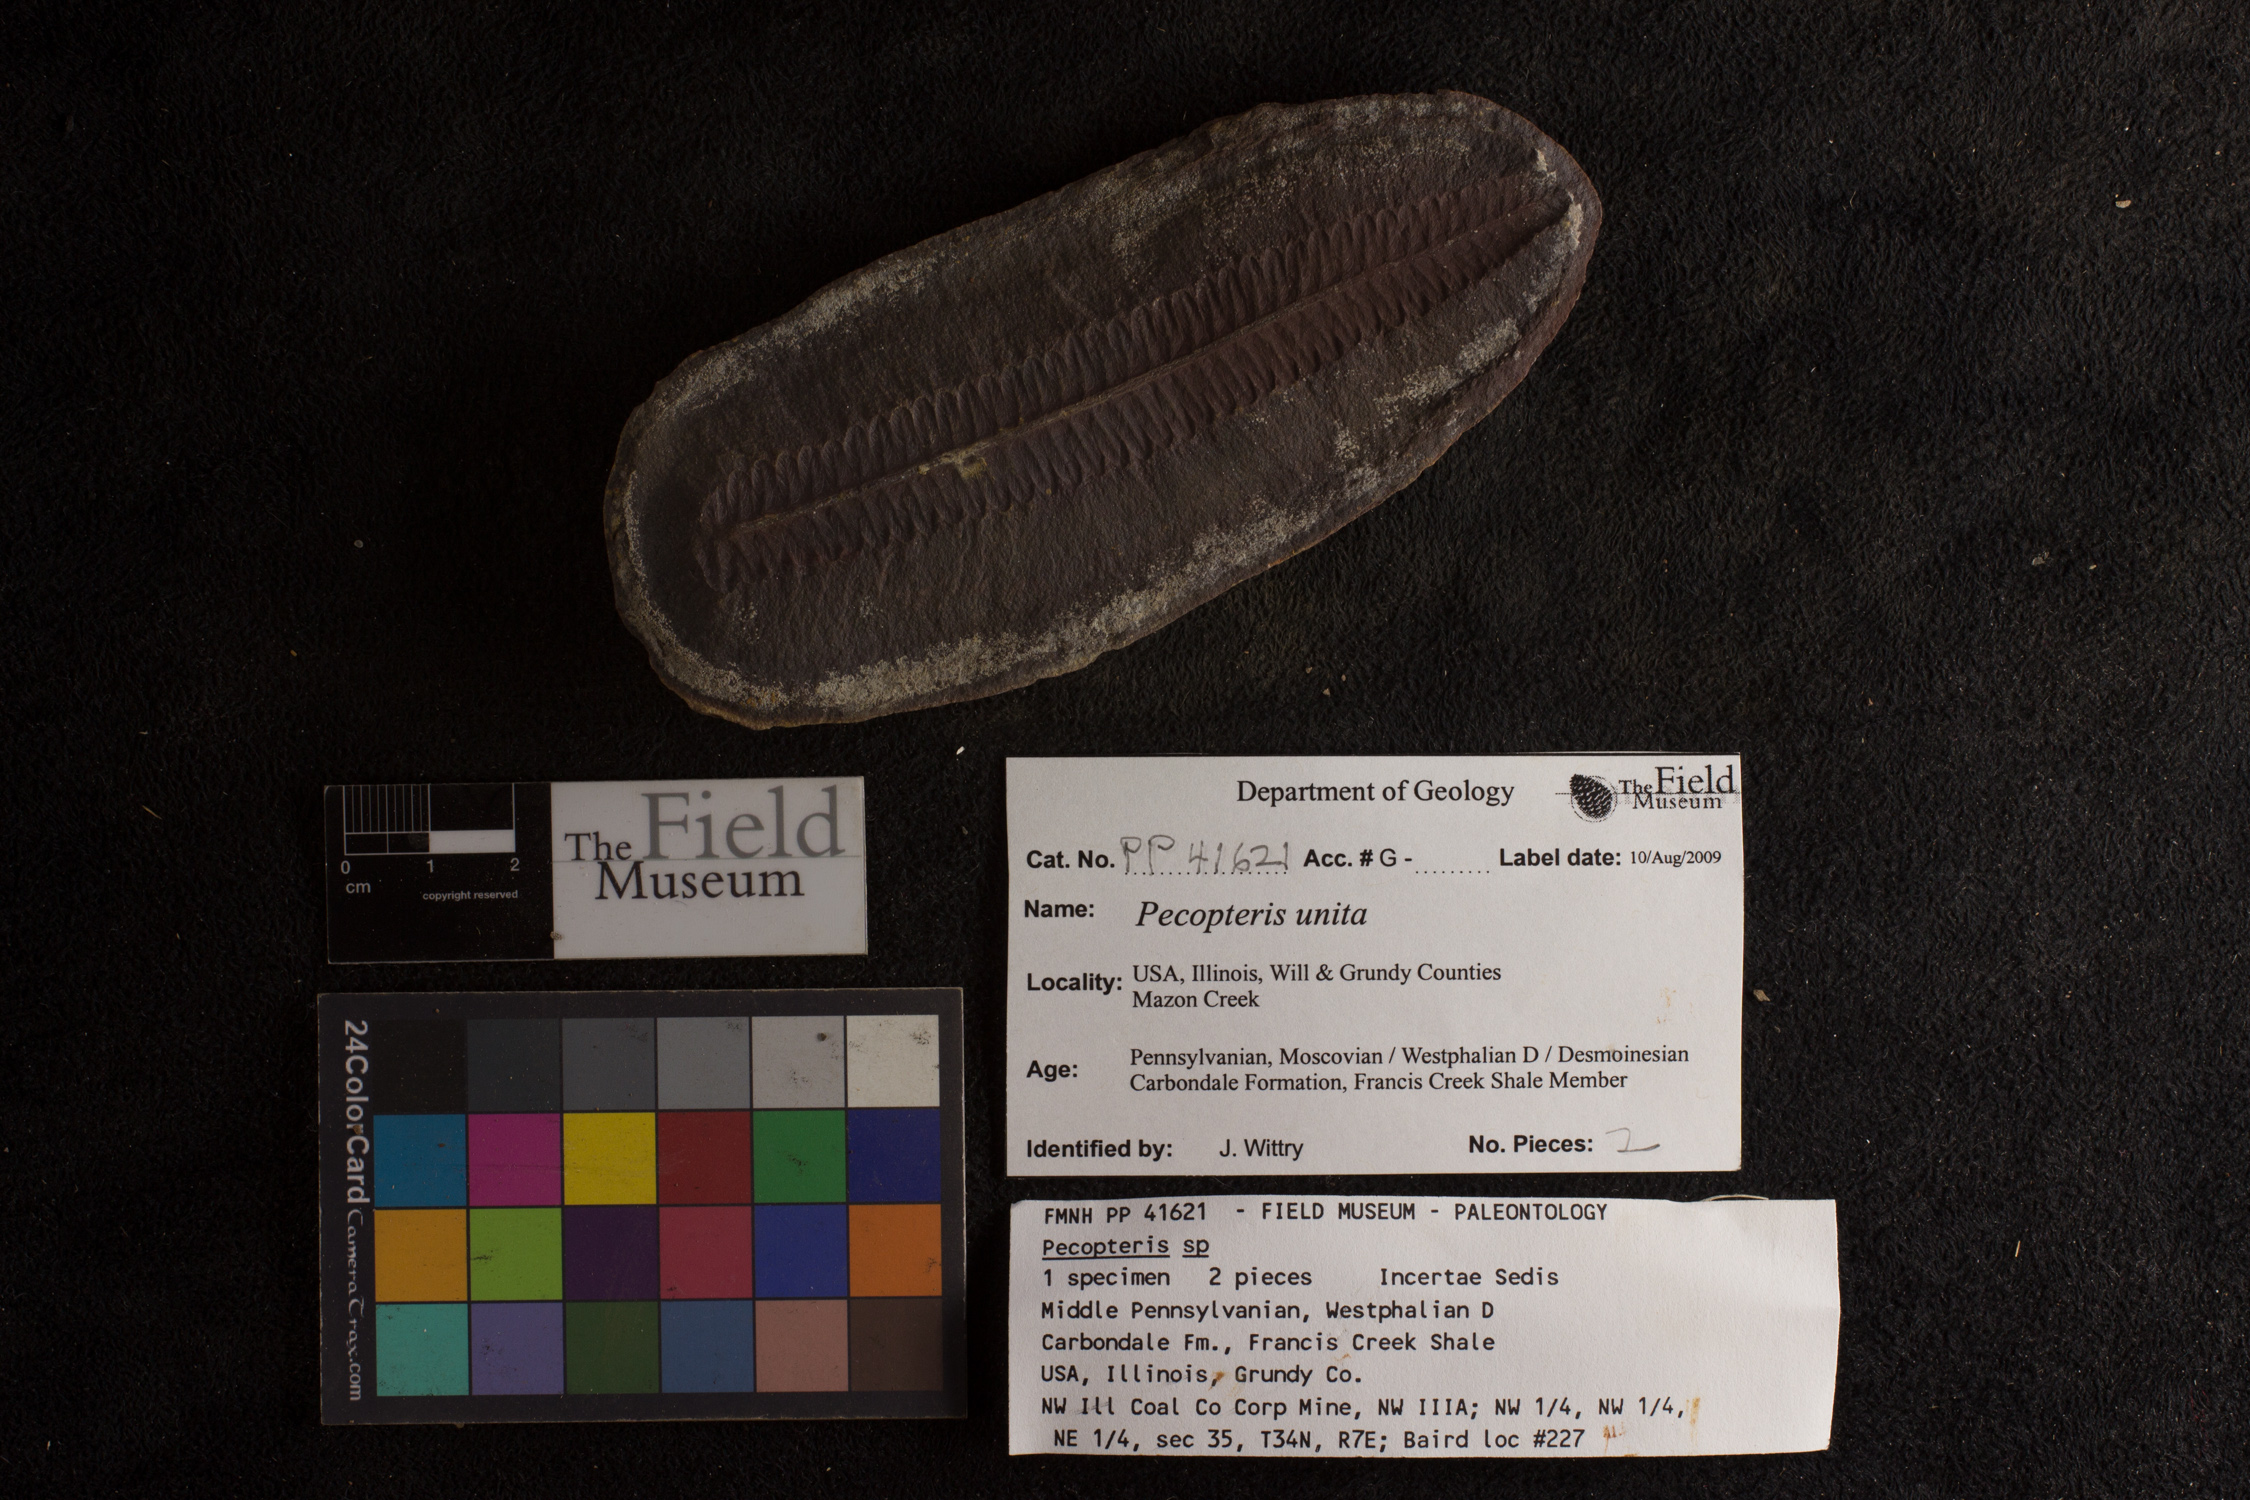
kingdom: Plantae
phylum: Tracheophyta
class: Polypodiopsida
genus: Diplazites
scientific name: Diplazites
